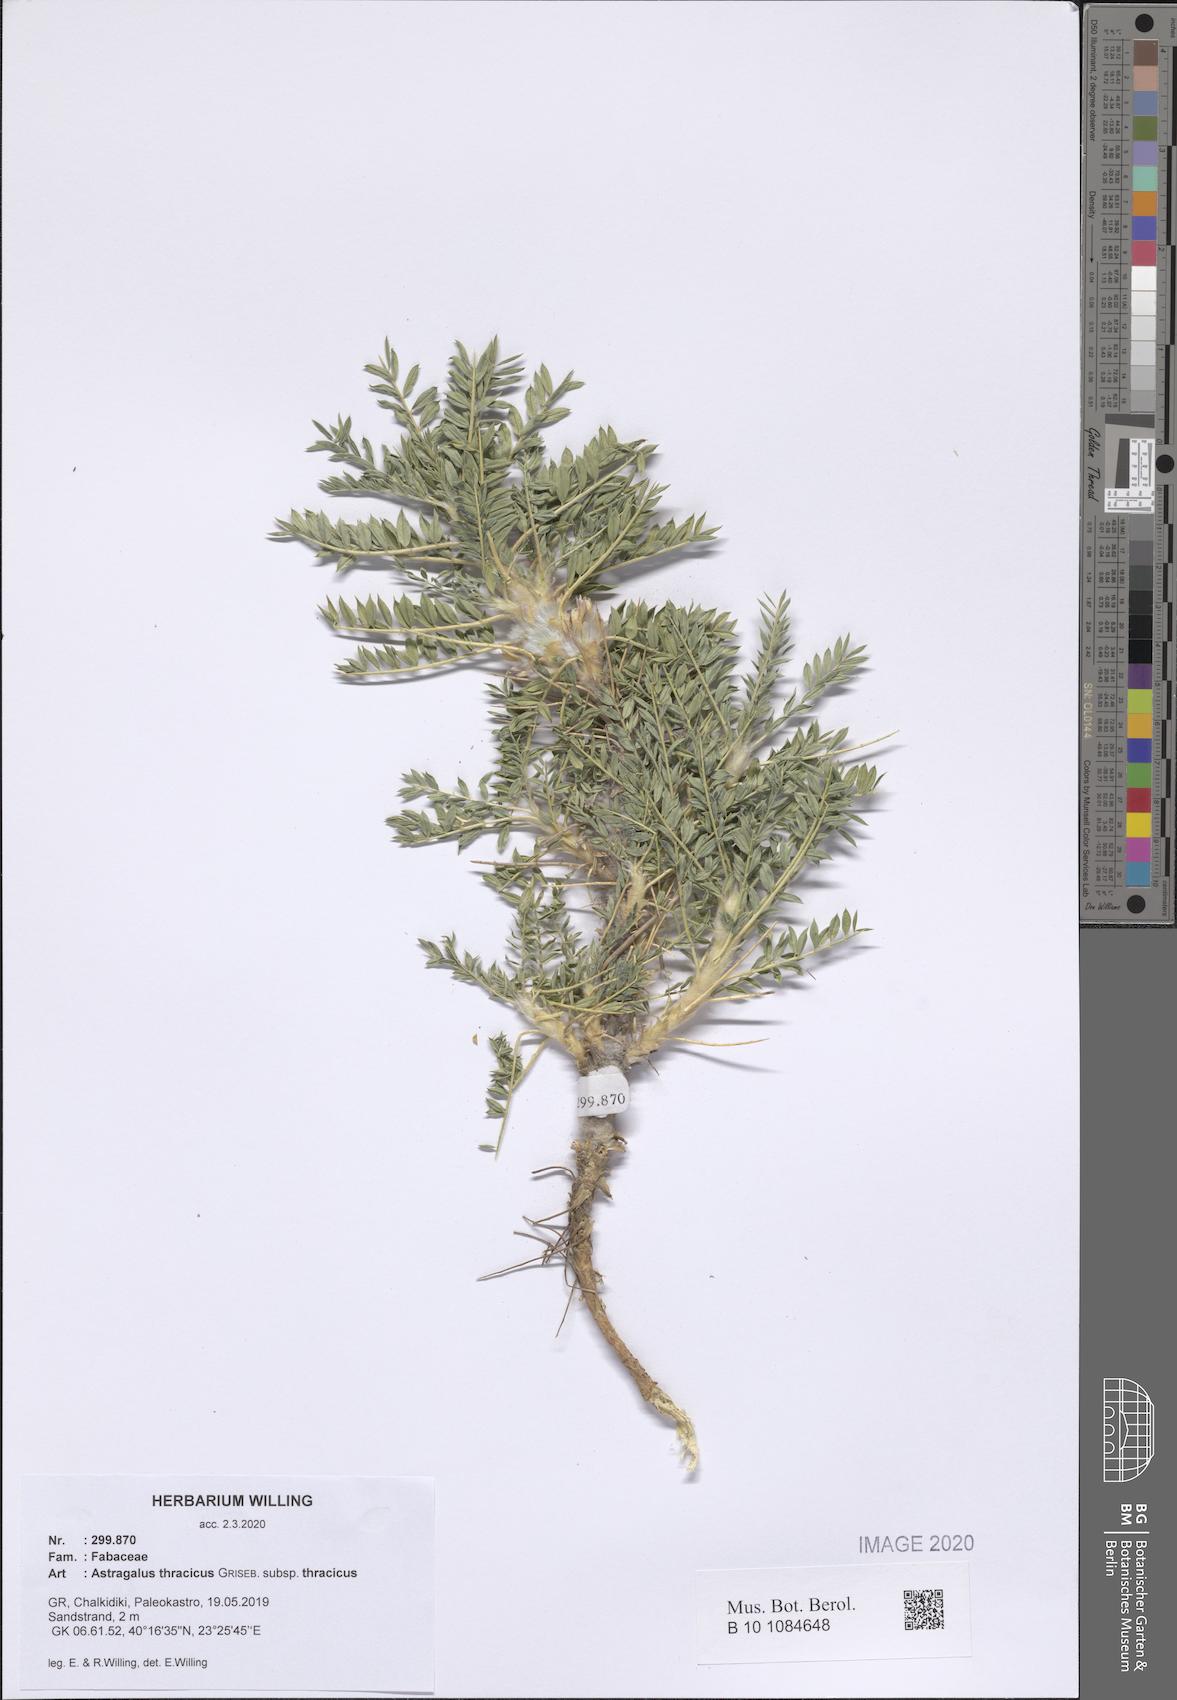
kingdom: Plantae
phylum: Tracheophyta
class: Magnoliopsida
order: Fabales
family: Fabaceae
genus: Astragalus
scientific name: Astragalus thracicus
